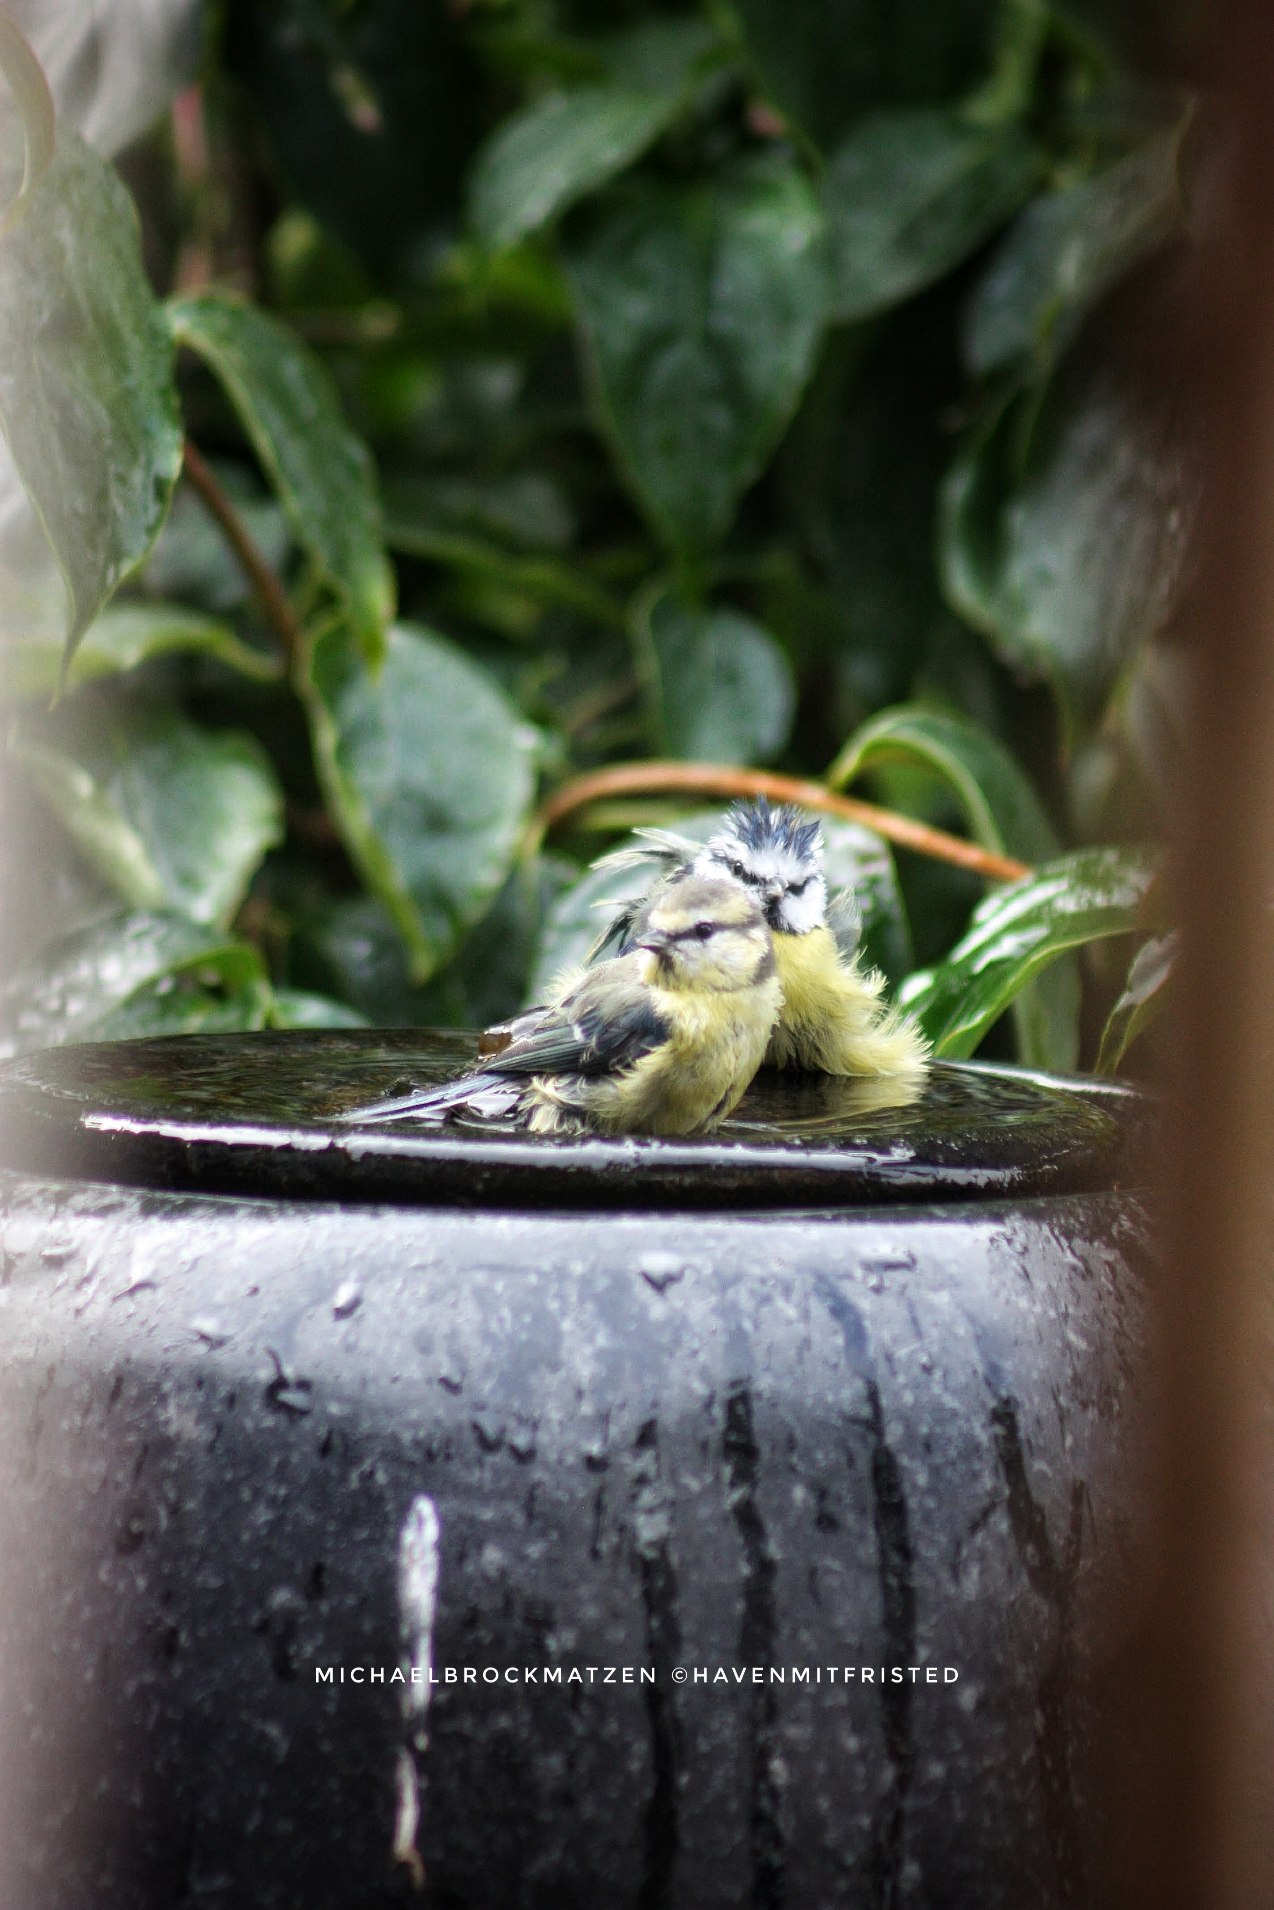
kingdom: Animalia
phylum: Chordata
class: Aves
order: Passeriformes
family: Paridae
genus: Cyanistes
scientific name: Cyanistes caeruleus
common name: Blåmejse
